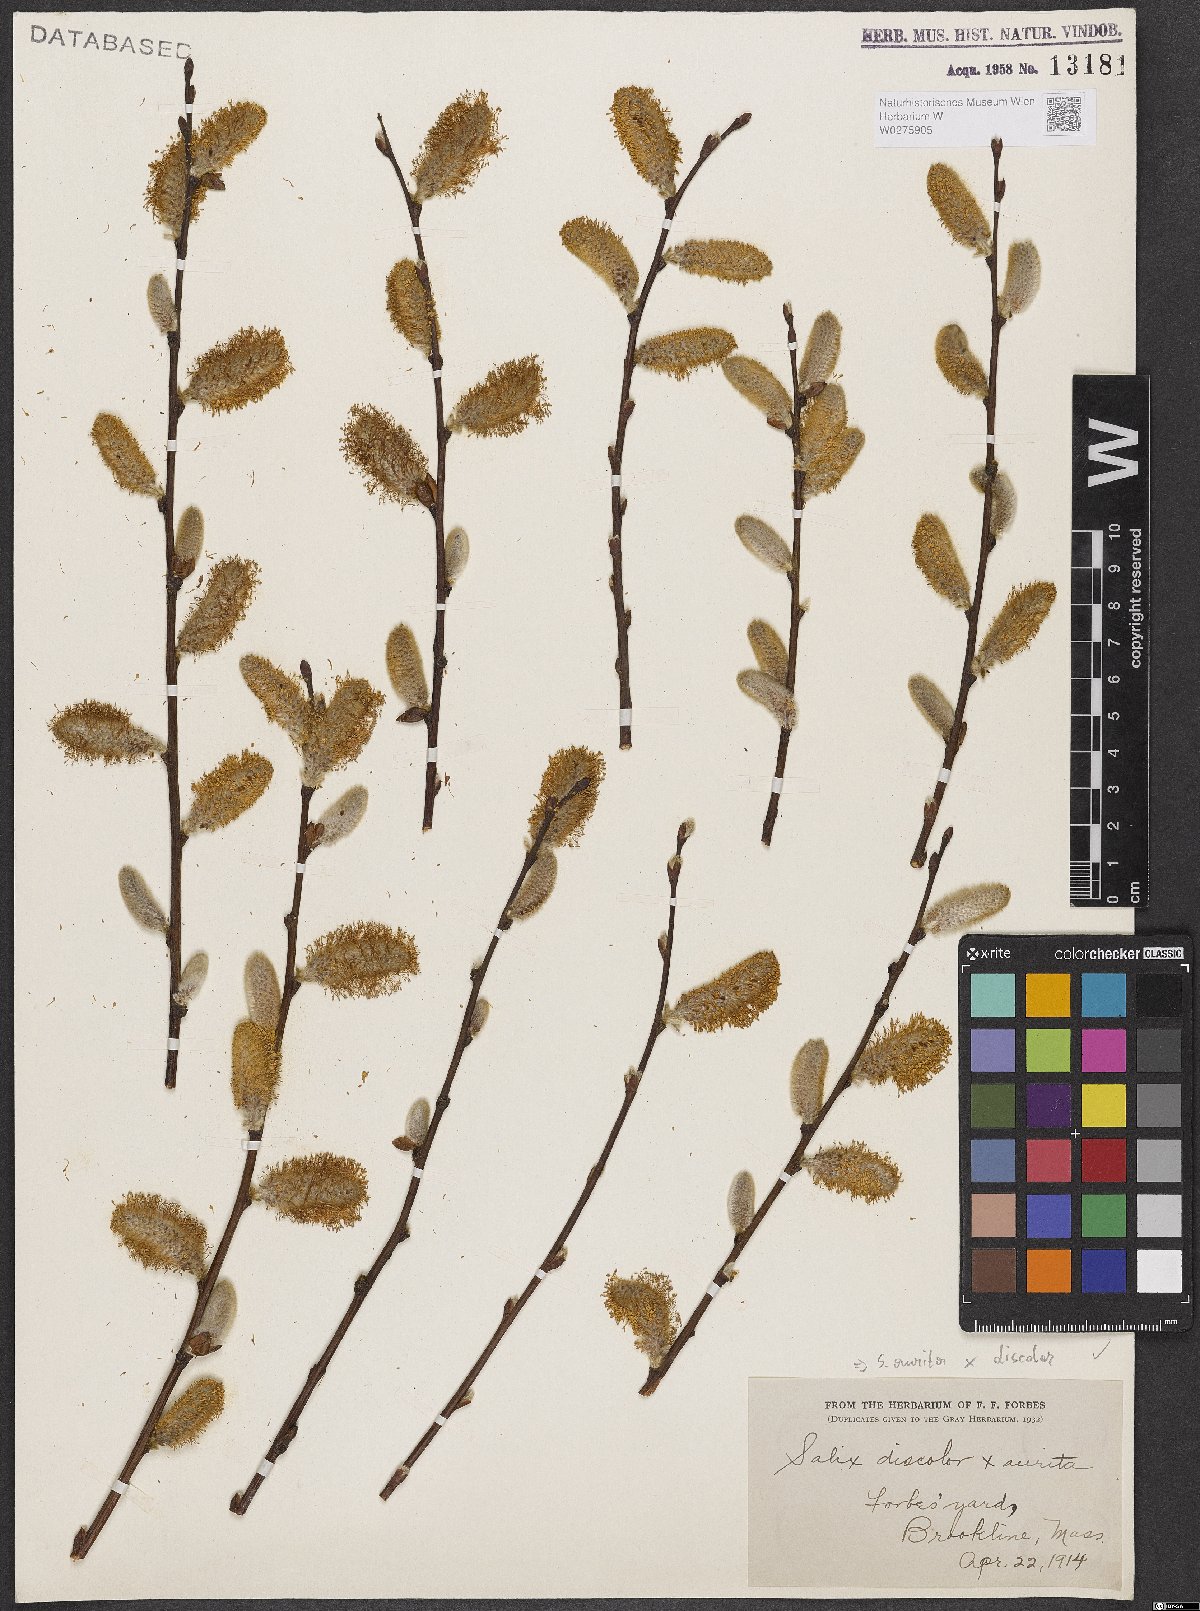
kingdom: Plantae
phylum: Tracheophyta
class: Magnoliopsida
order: Malpighiales
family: Salicaceae
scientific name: Salicaceae
